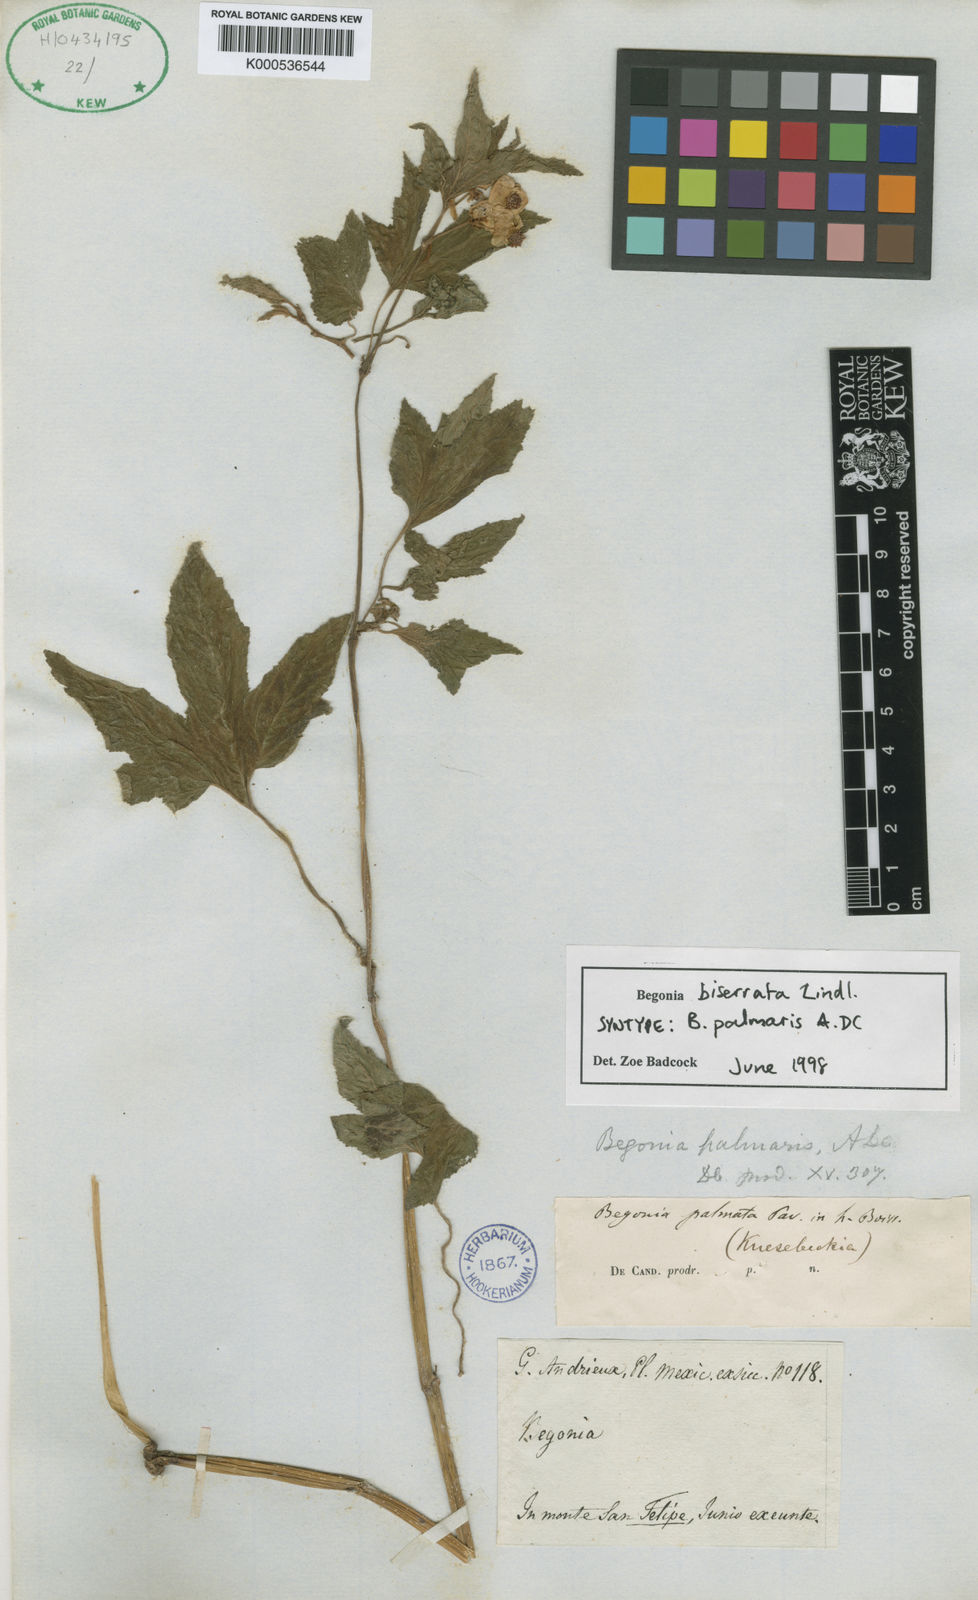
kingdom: Plantae
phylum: Tracheophyta
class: Magnoliopsida
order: Cucurbitales
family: Begoniaceae
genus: Begonia
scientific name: Begonia biserrata
